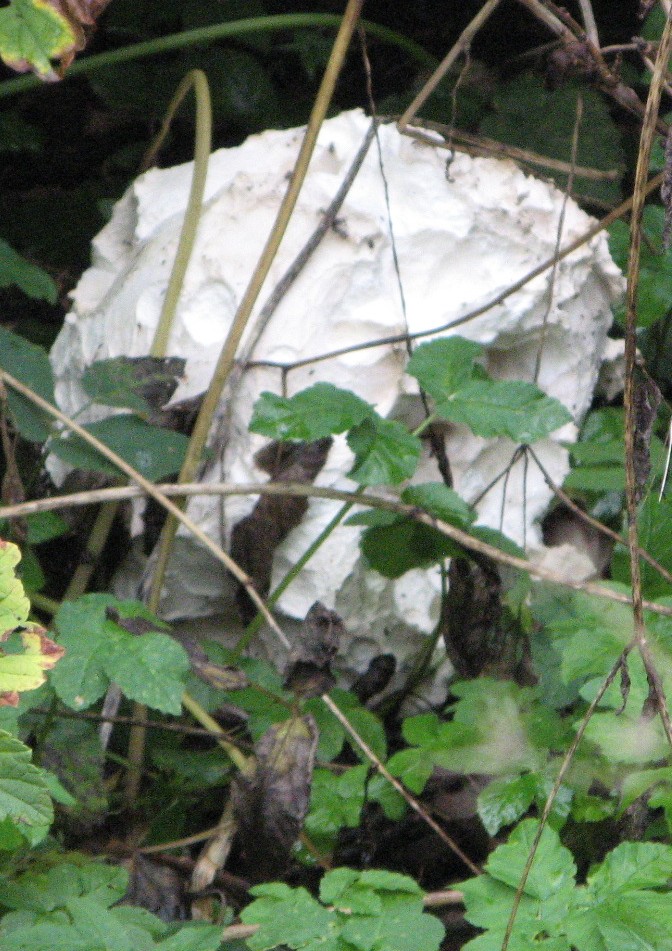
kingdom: Fungi
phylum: Basidiomycota
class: Agaricomycetes
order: Agaricales
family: Lycoperdaceae
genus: Calvatia
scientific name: Calvatia gigantea
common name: kæmpestøvbold
